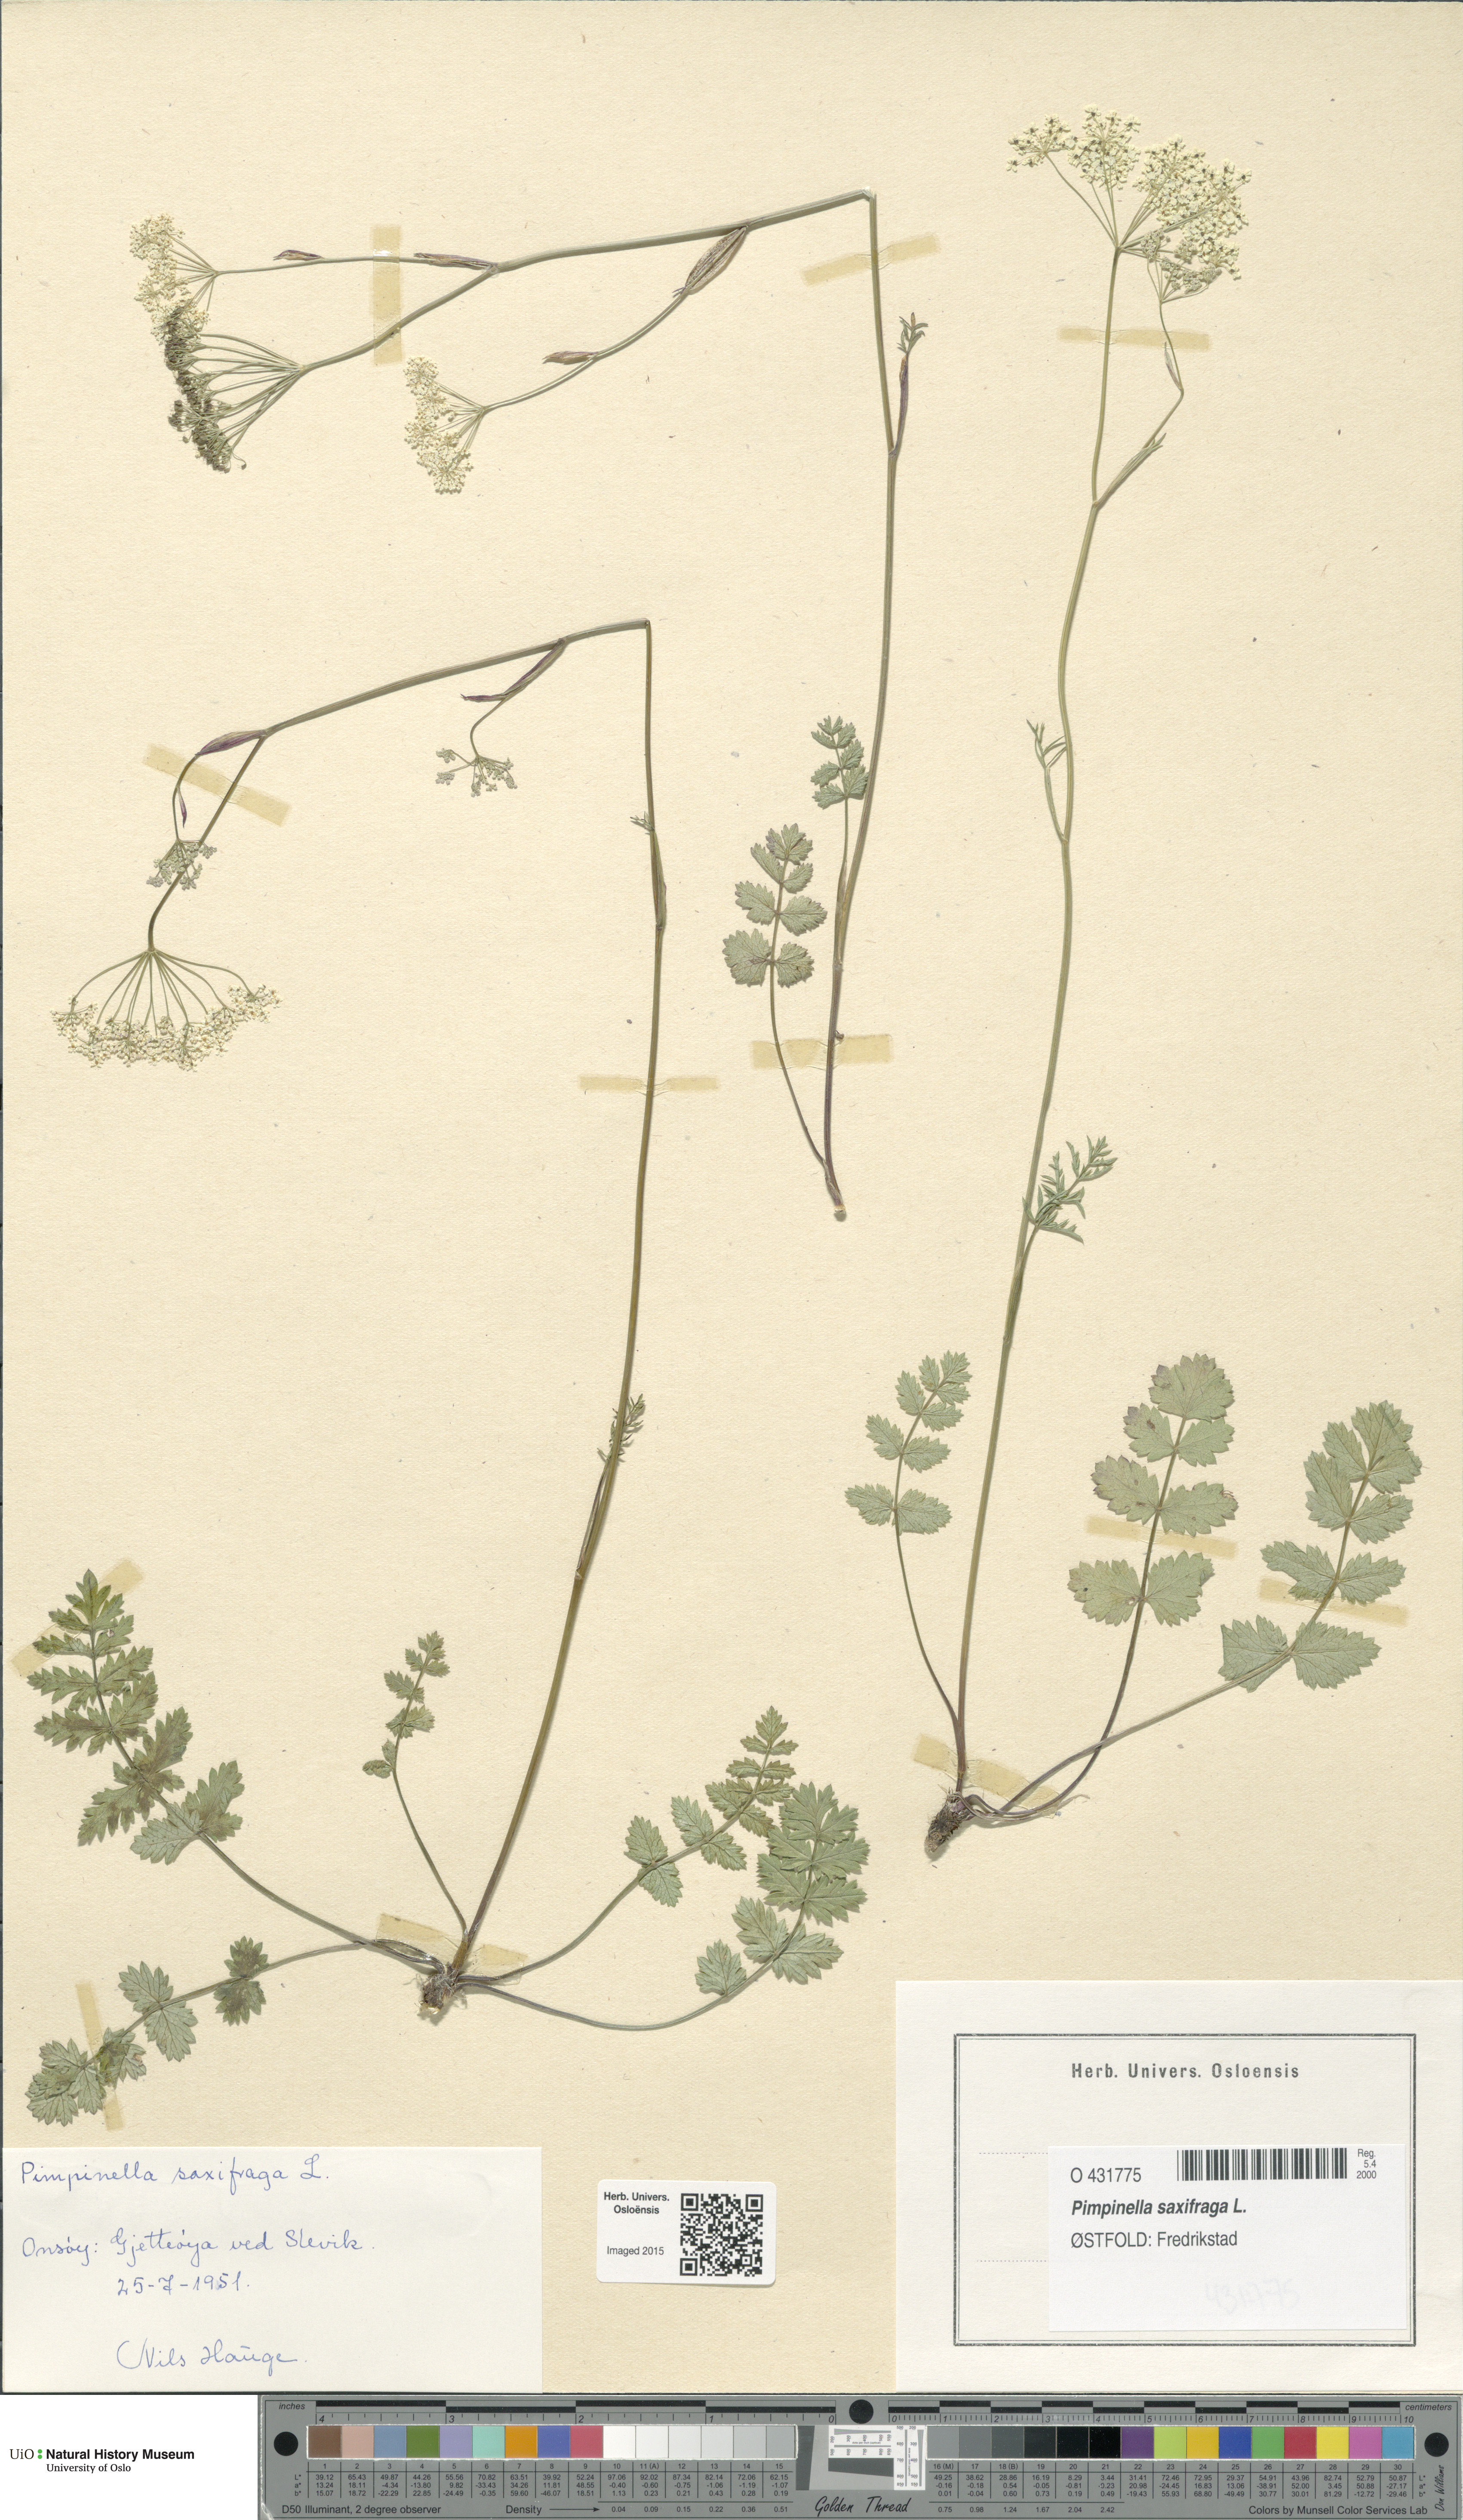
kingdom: Plantae
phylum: Tracheophyta
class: Magnoliopsida
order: Apiales
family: Apiaceae
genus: Pimpinella
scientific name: Pimpinella saxifraga
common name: Burnet-saxifrage
